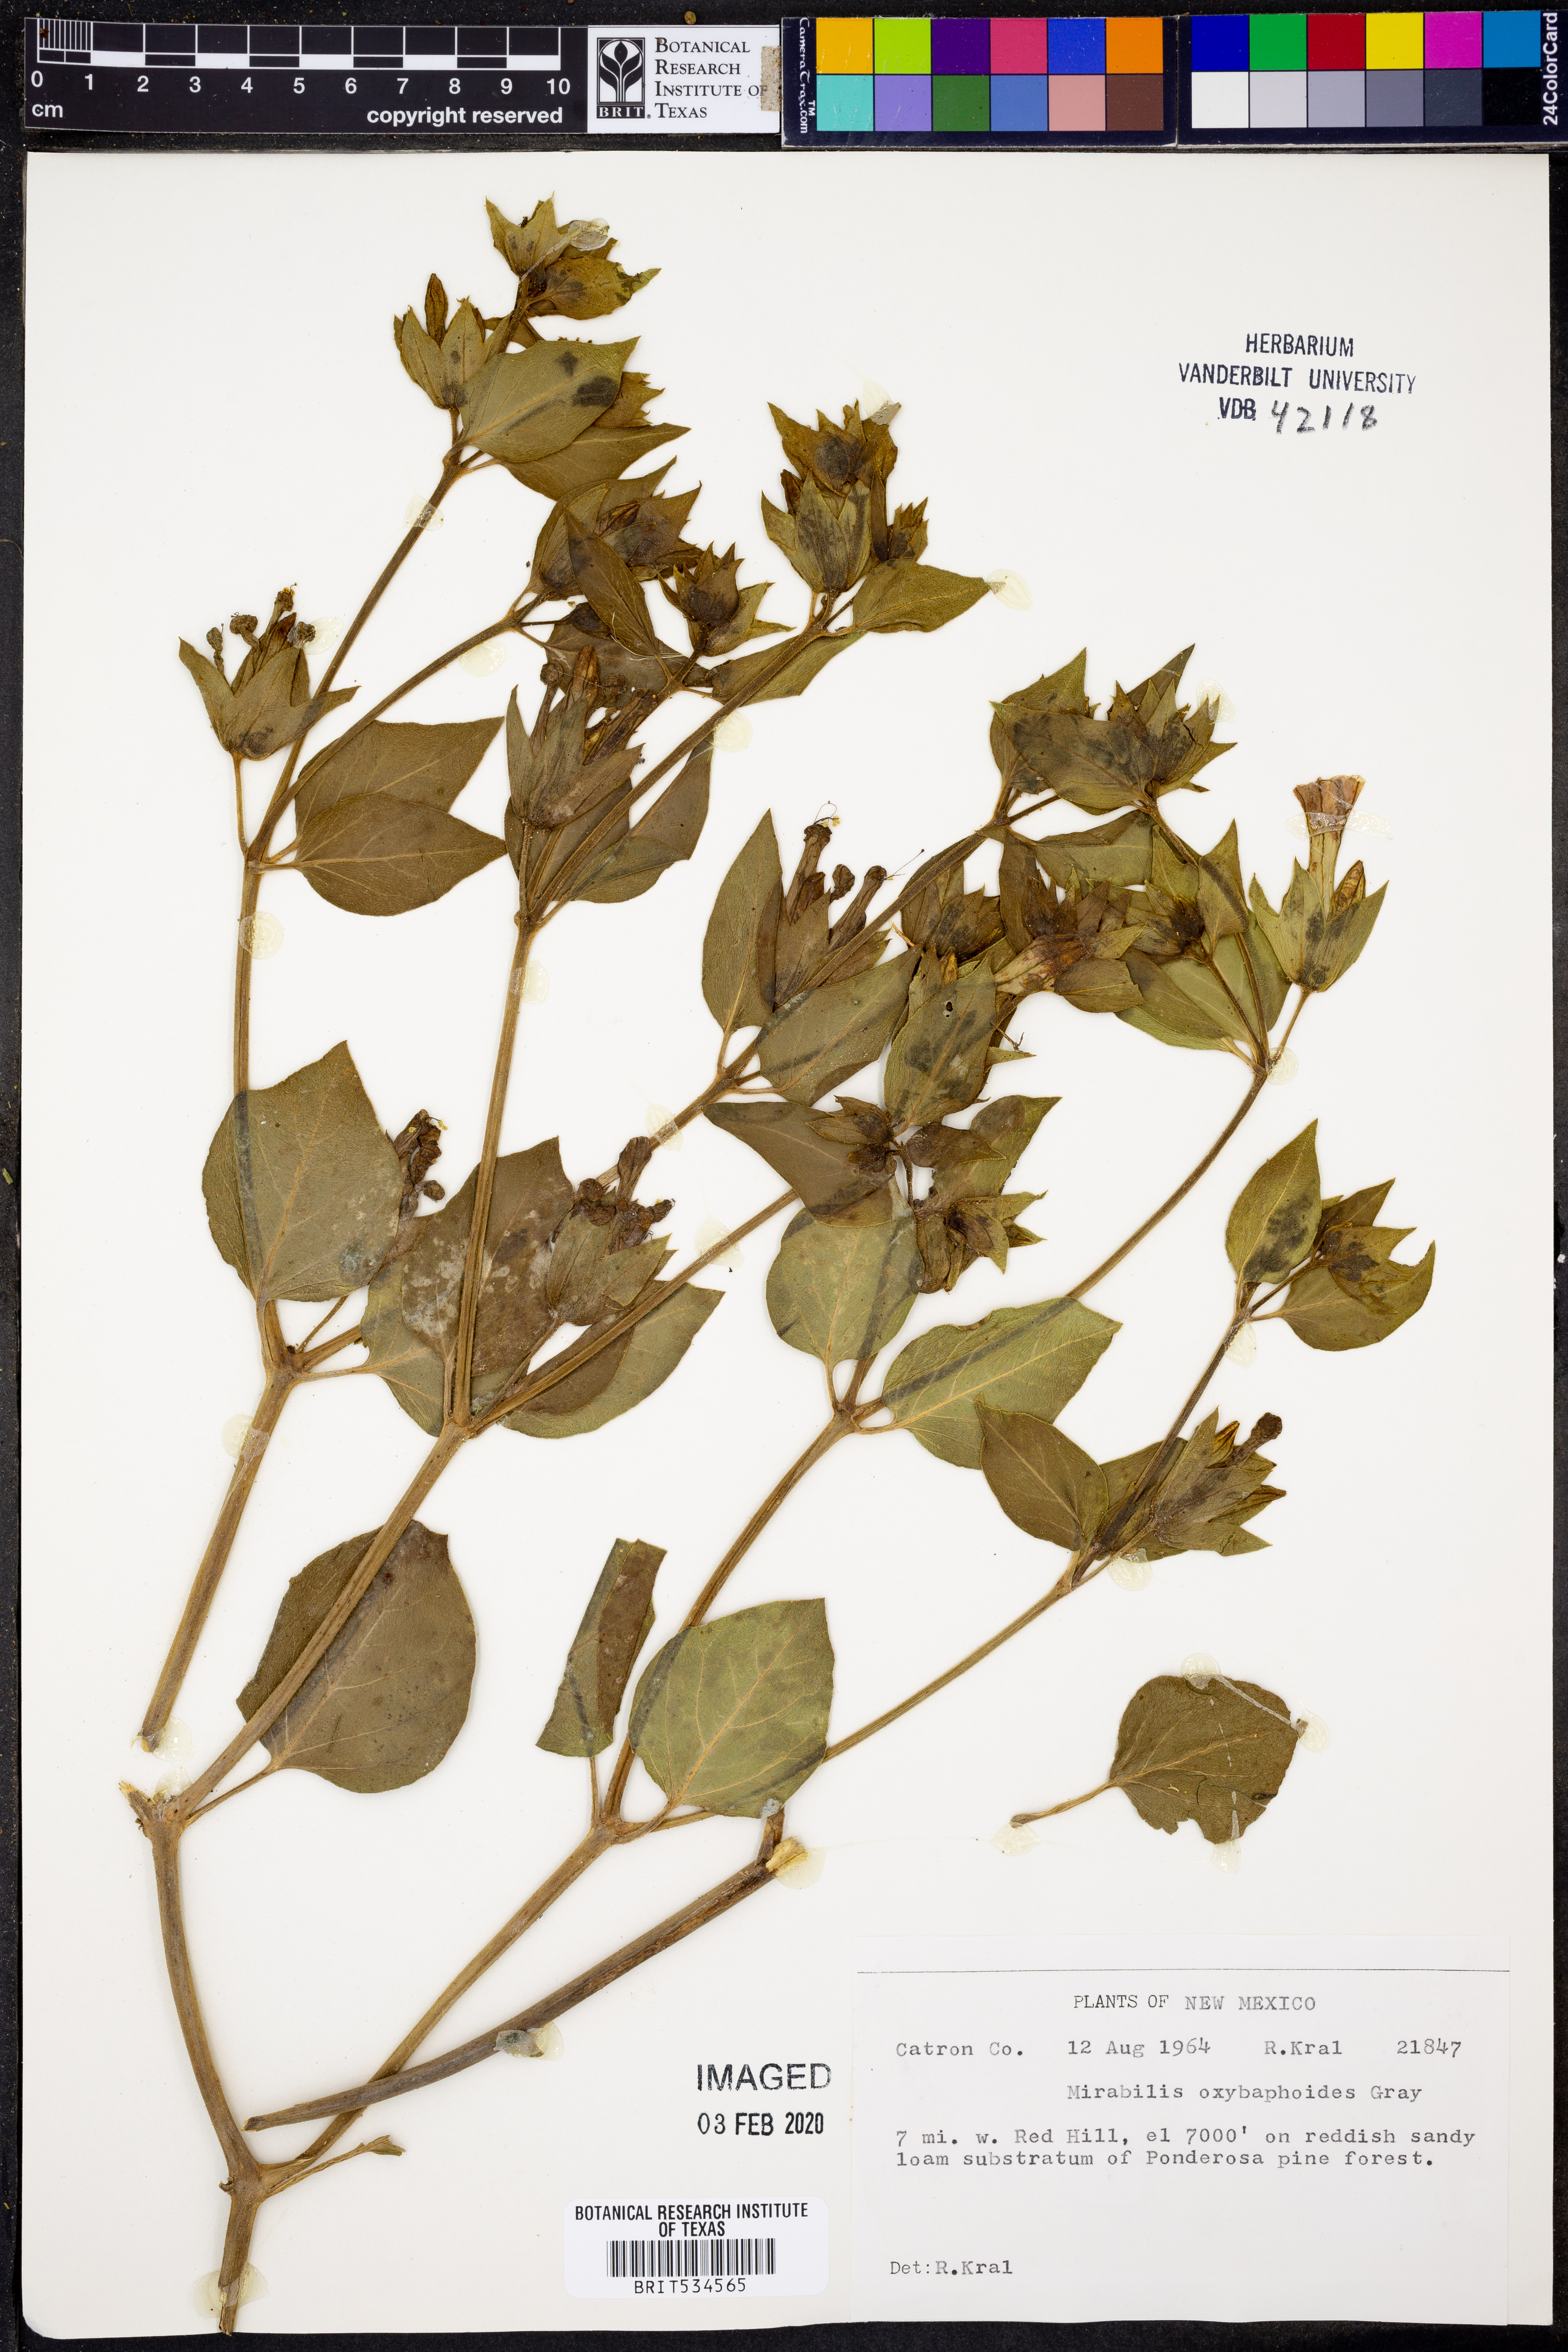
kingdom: Plantae
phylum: Tracheophyta
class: Magnoliopsida
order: Caryophyllales
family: Nyctaginaceae
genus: Mirabilis
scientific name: Mirabilis oxybaphoides
